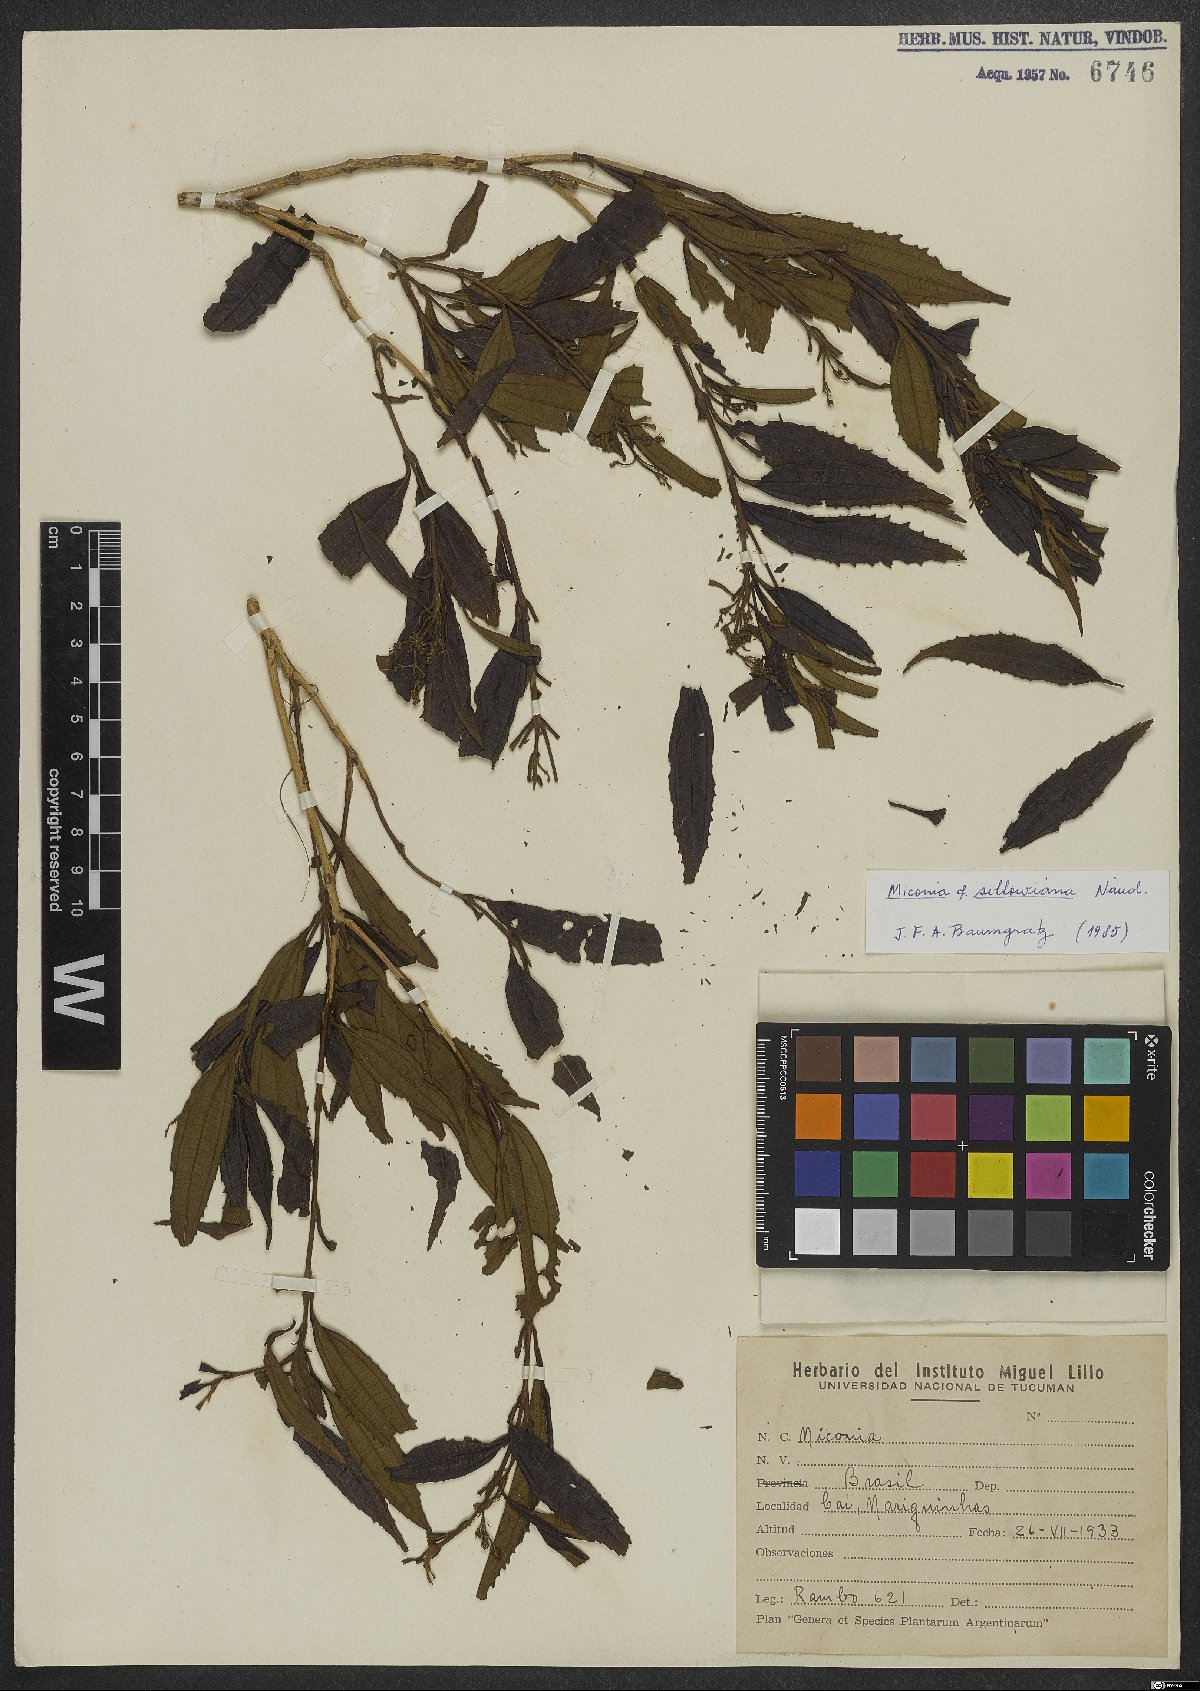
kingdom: Plantae
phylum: Tracheophyta
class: Magnoliopsida
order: Myrtales
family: Melastomataceae
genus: Miconia
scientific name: Miconia sellowiana
